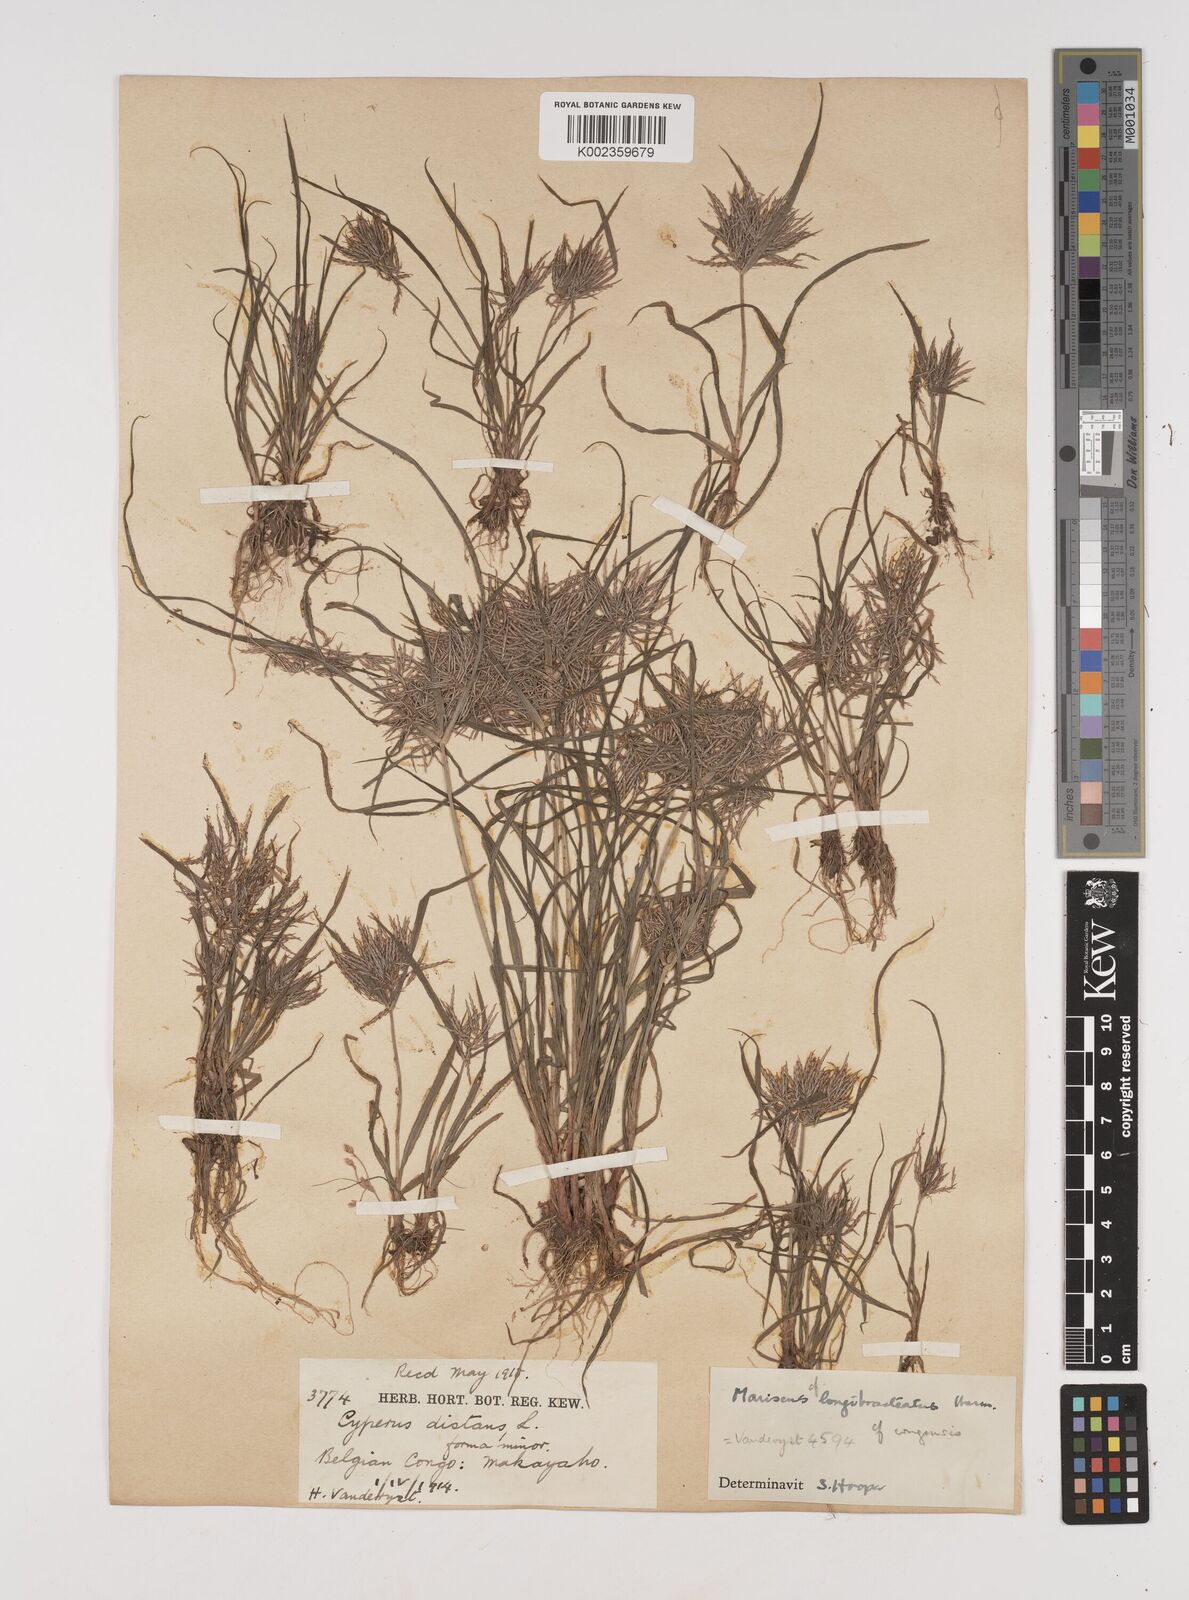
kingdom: Plantae
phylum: Tracheophyta
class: Liliopsida
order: Poales
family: Cyperaceae
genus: Cyperus
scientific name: Cyperus
